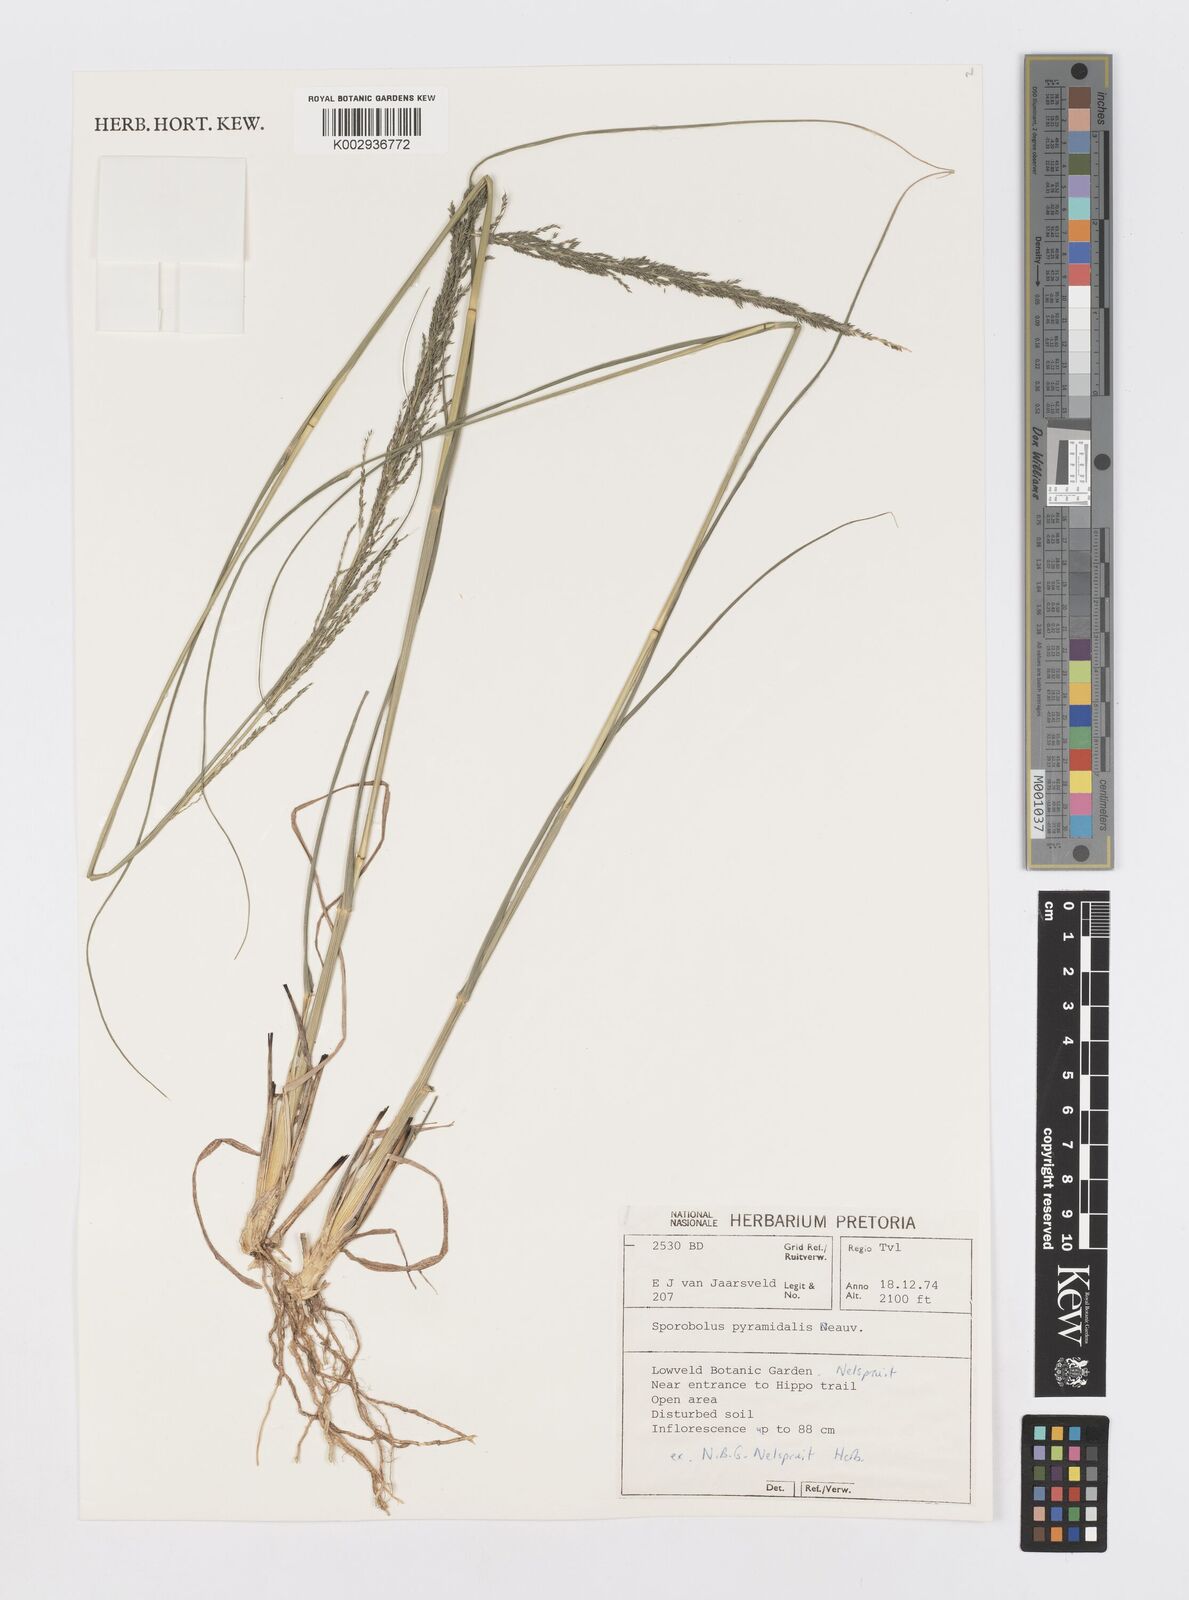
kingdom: Plantae
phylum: Tracheophyta
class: Liliopsida
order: Poales
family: Poaceae
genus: Sporobolus
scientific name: Sporobolus pyramidalis
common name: West indian dropseed
